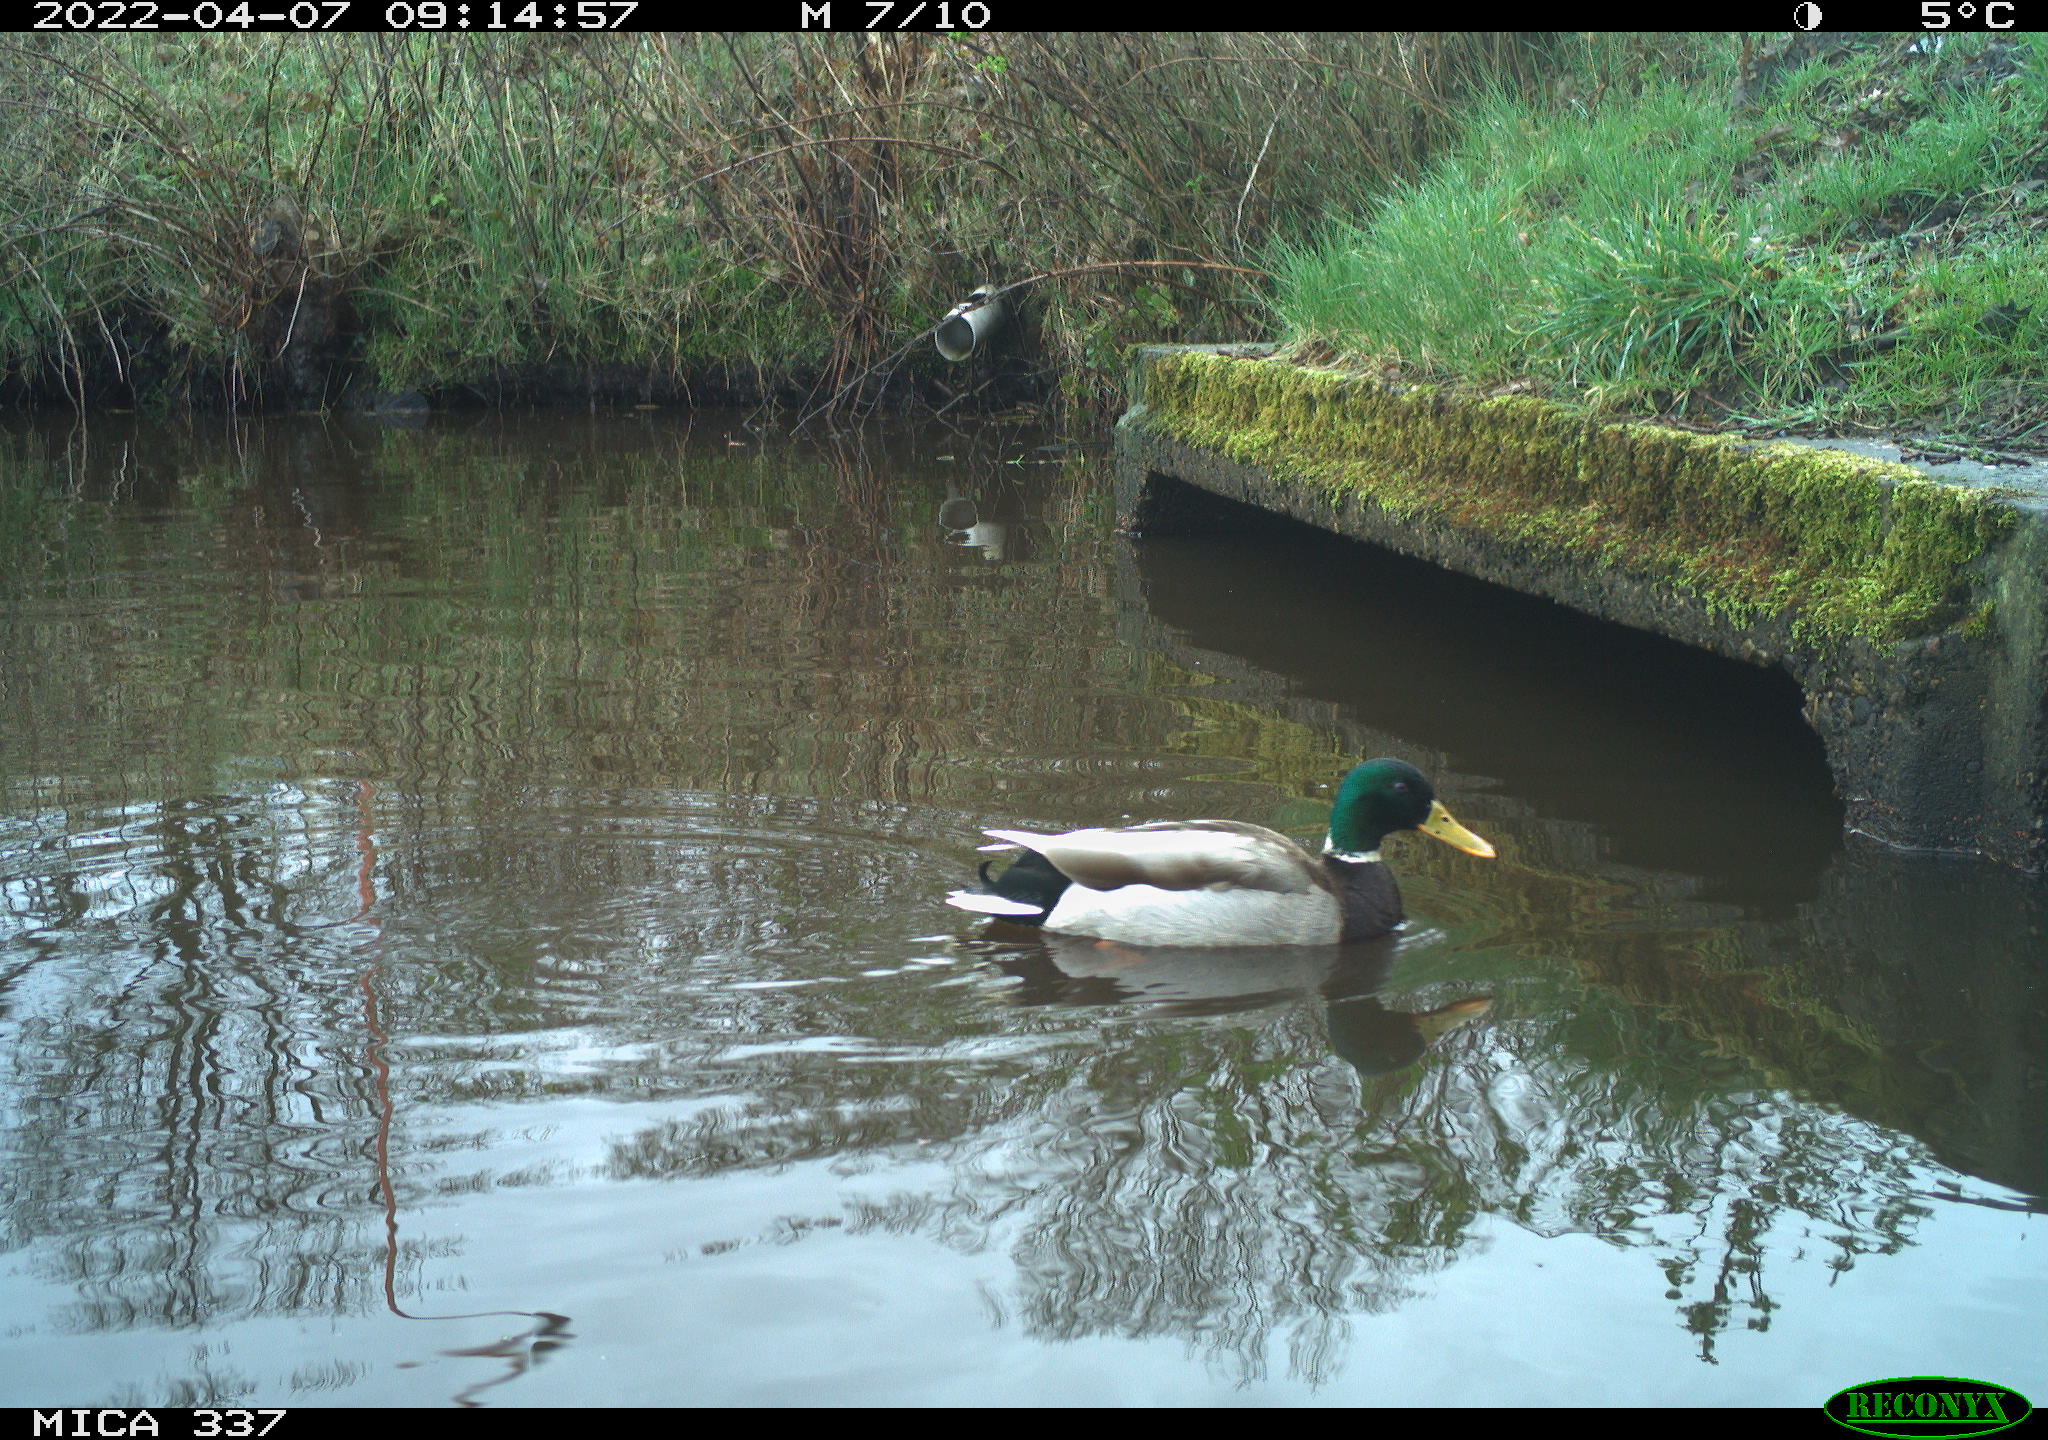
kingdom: Animalia
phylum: Chordata
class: Aves
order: Anseriformes
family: Anatidae
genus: Anas
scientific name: Anas platyrhynchos
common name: Mallard
